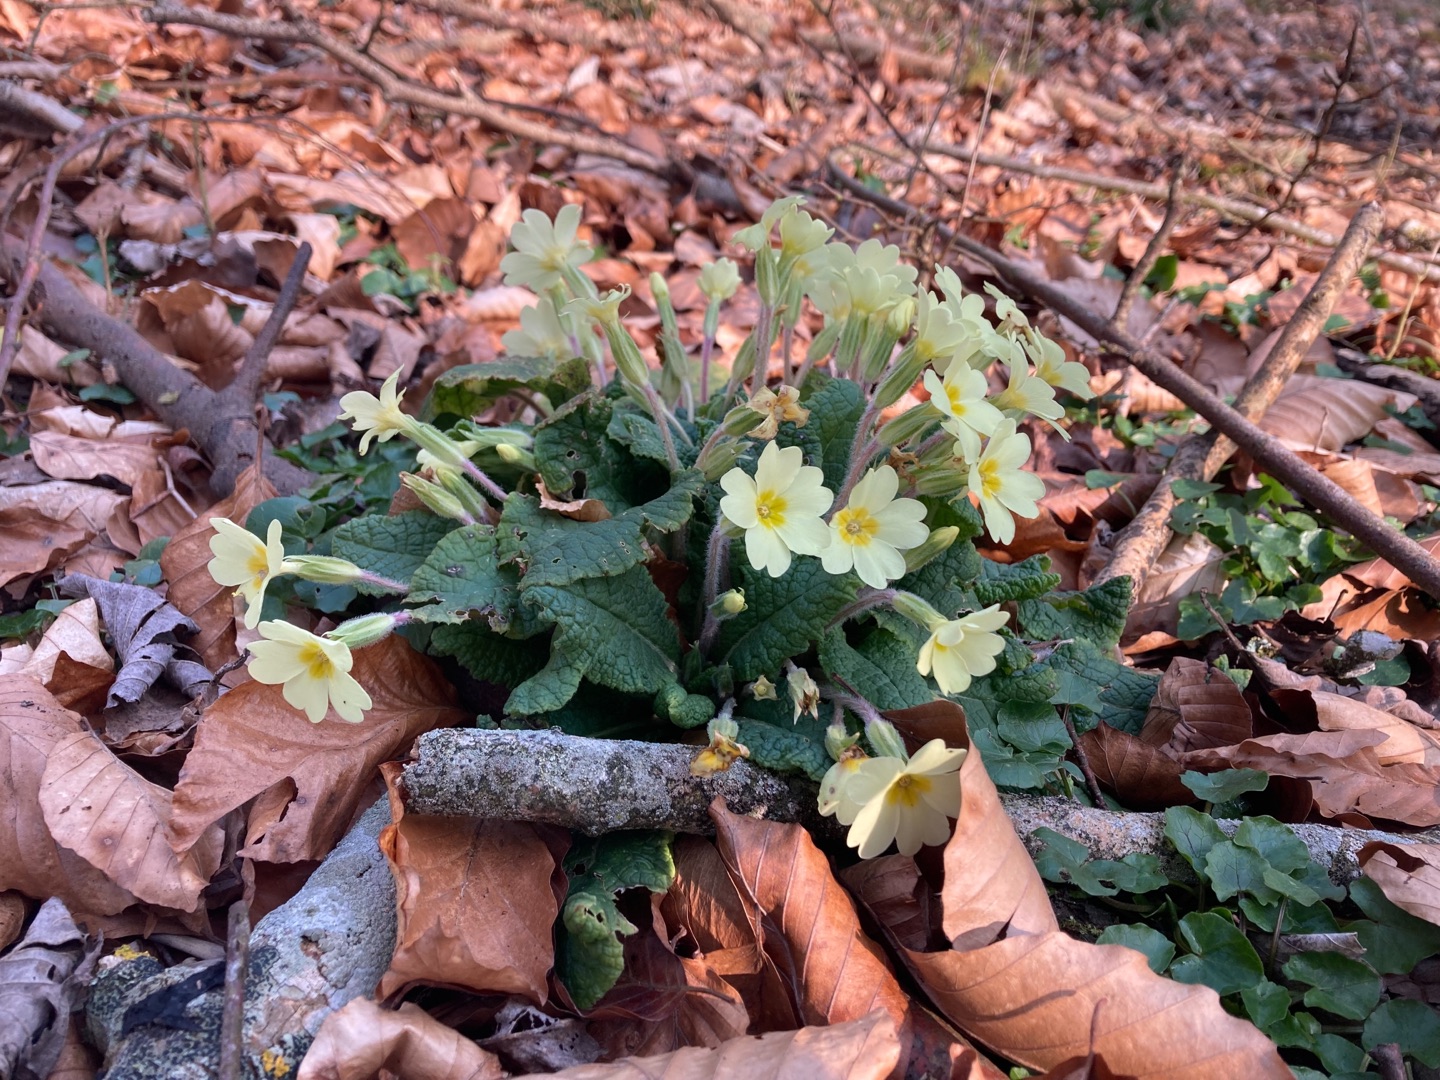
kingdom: Plantae
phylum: Tracheophyta
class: Magnoliopsida
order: Ericales
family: Primulaceae
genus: Primula
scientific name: Primula vulgaris
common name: Storblomstret kodriver
